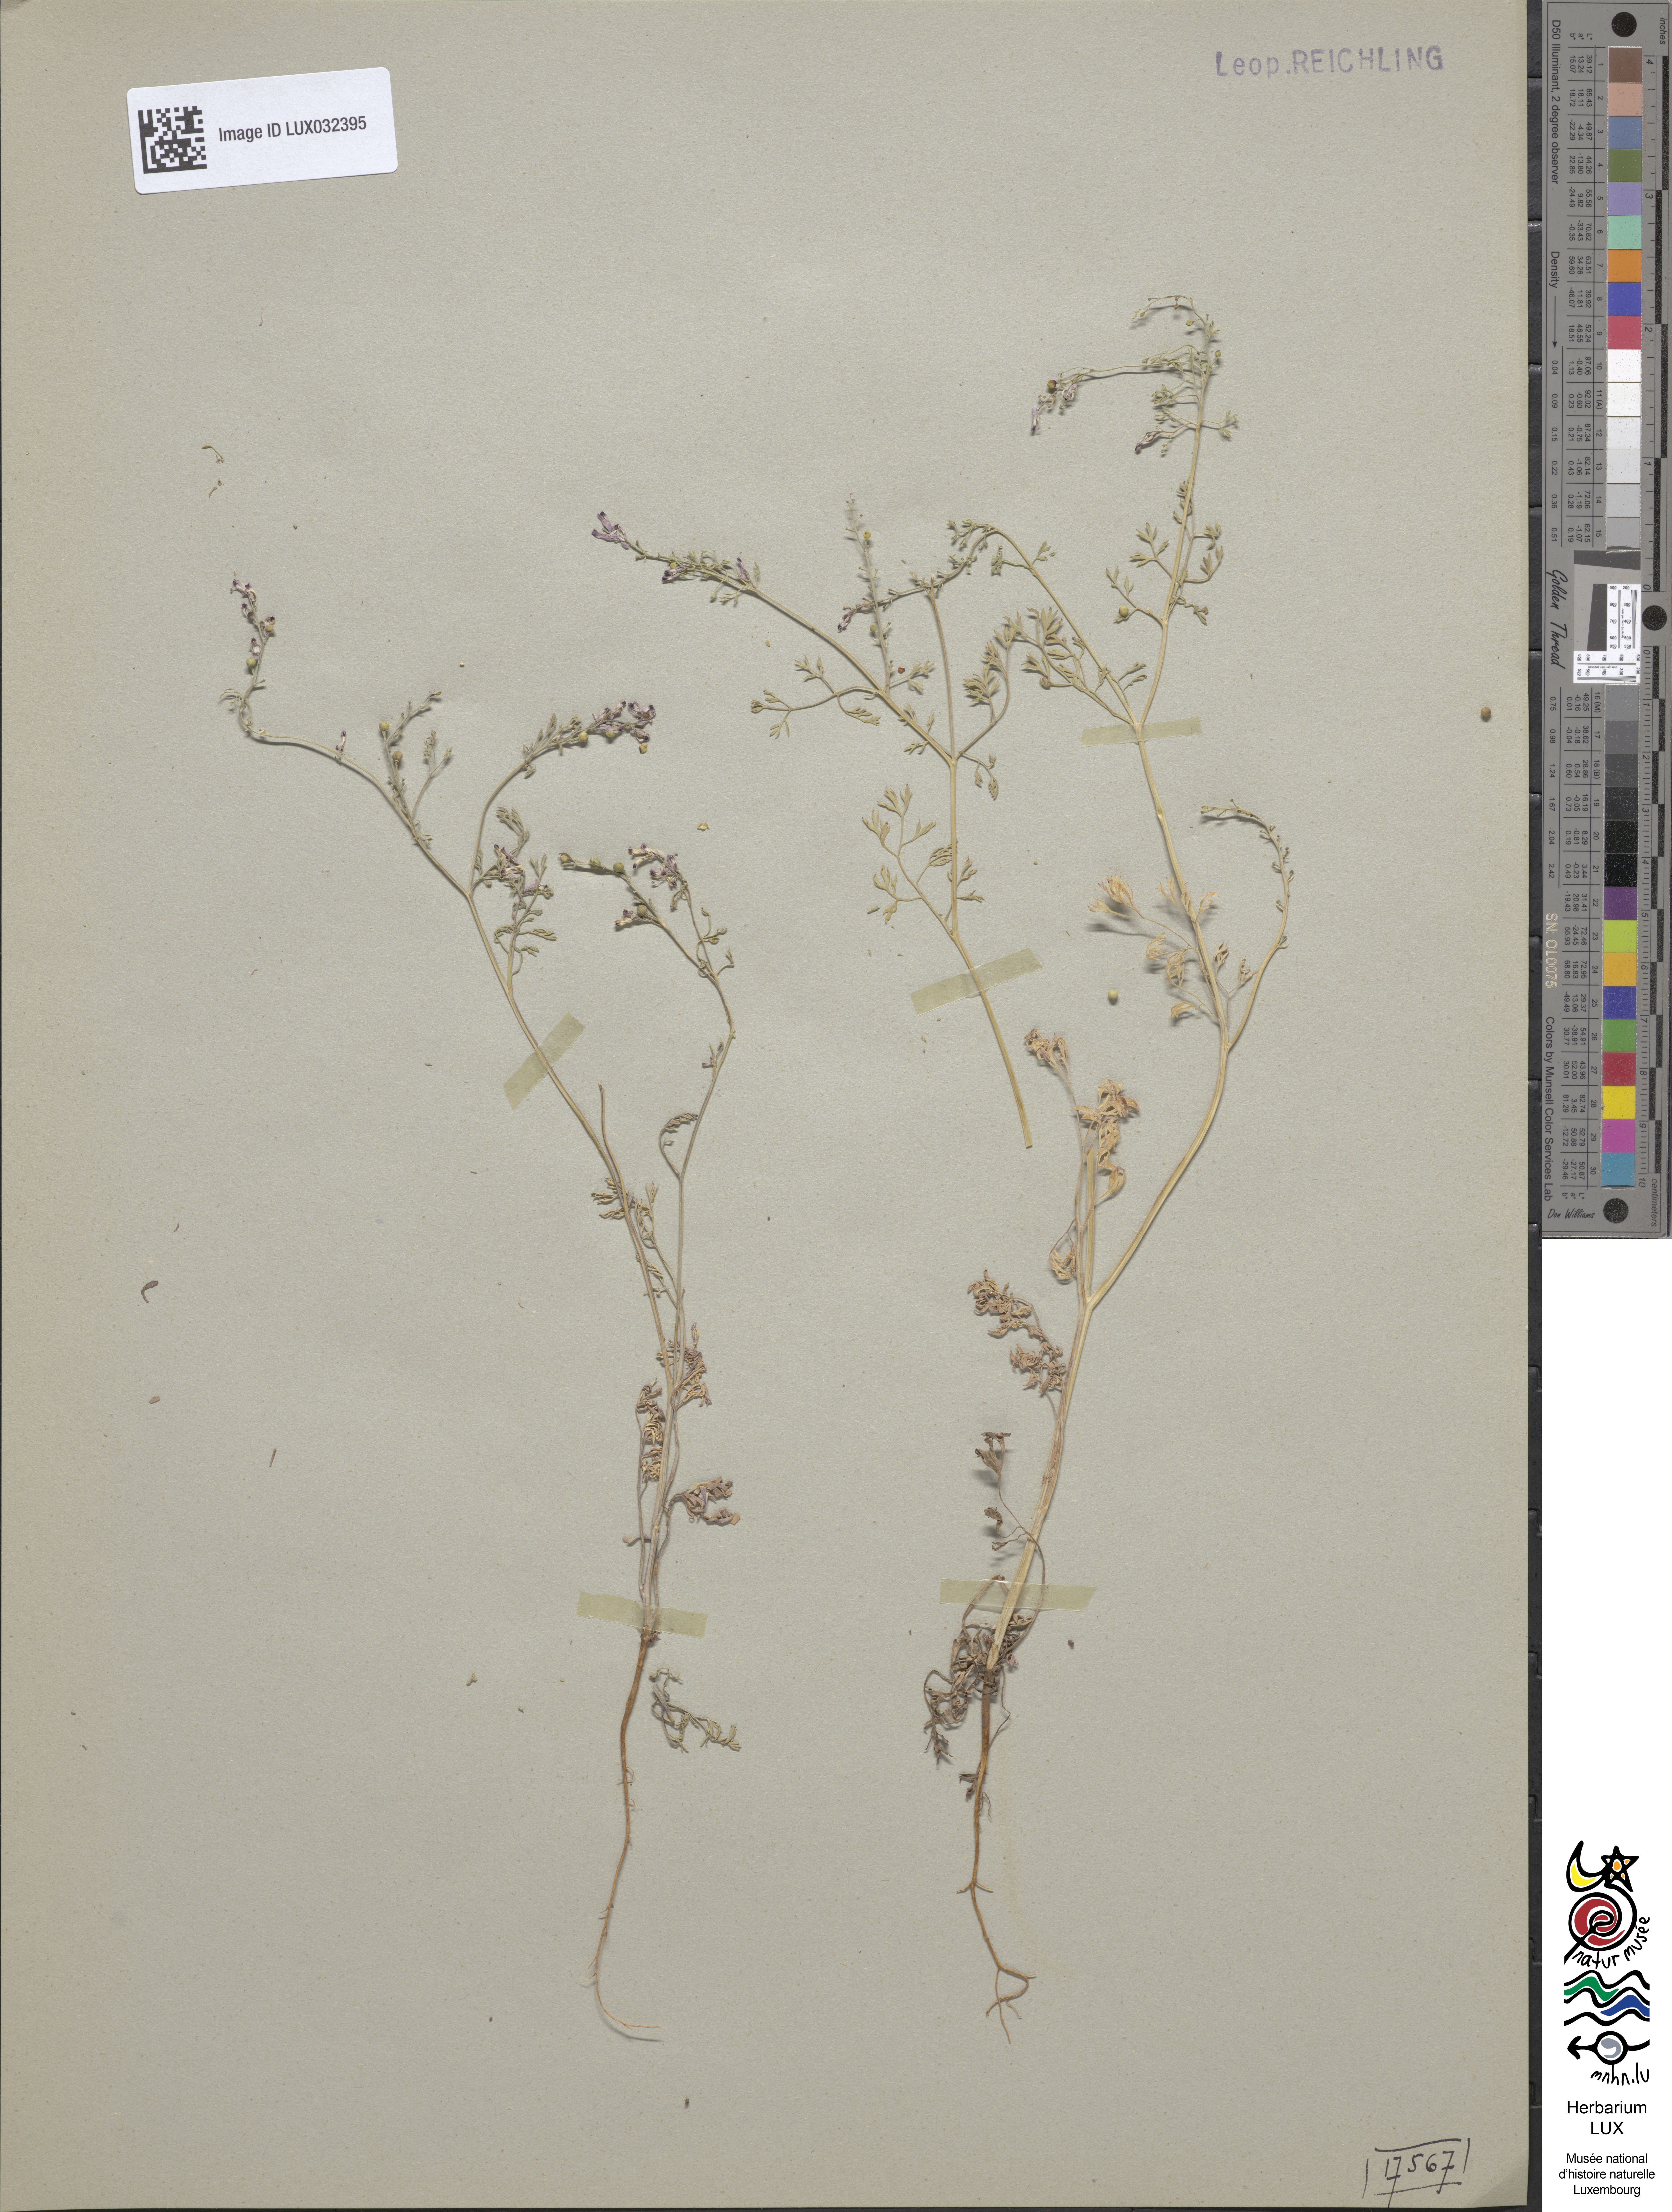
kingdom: Plantae
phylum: Tracheophyta
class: Magnoliopsida
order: Ranunculales
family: Papaveraceae
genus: Fumaria
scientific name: Fumaria vaillantii
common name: Few-flowered fumitory
